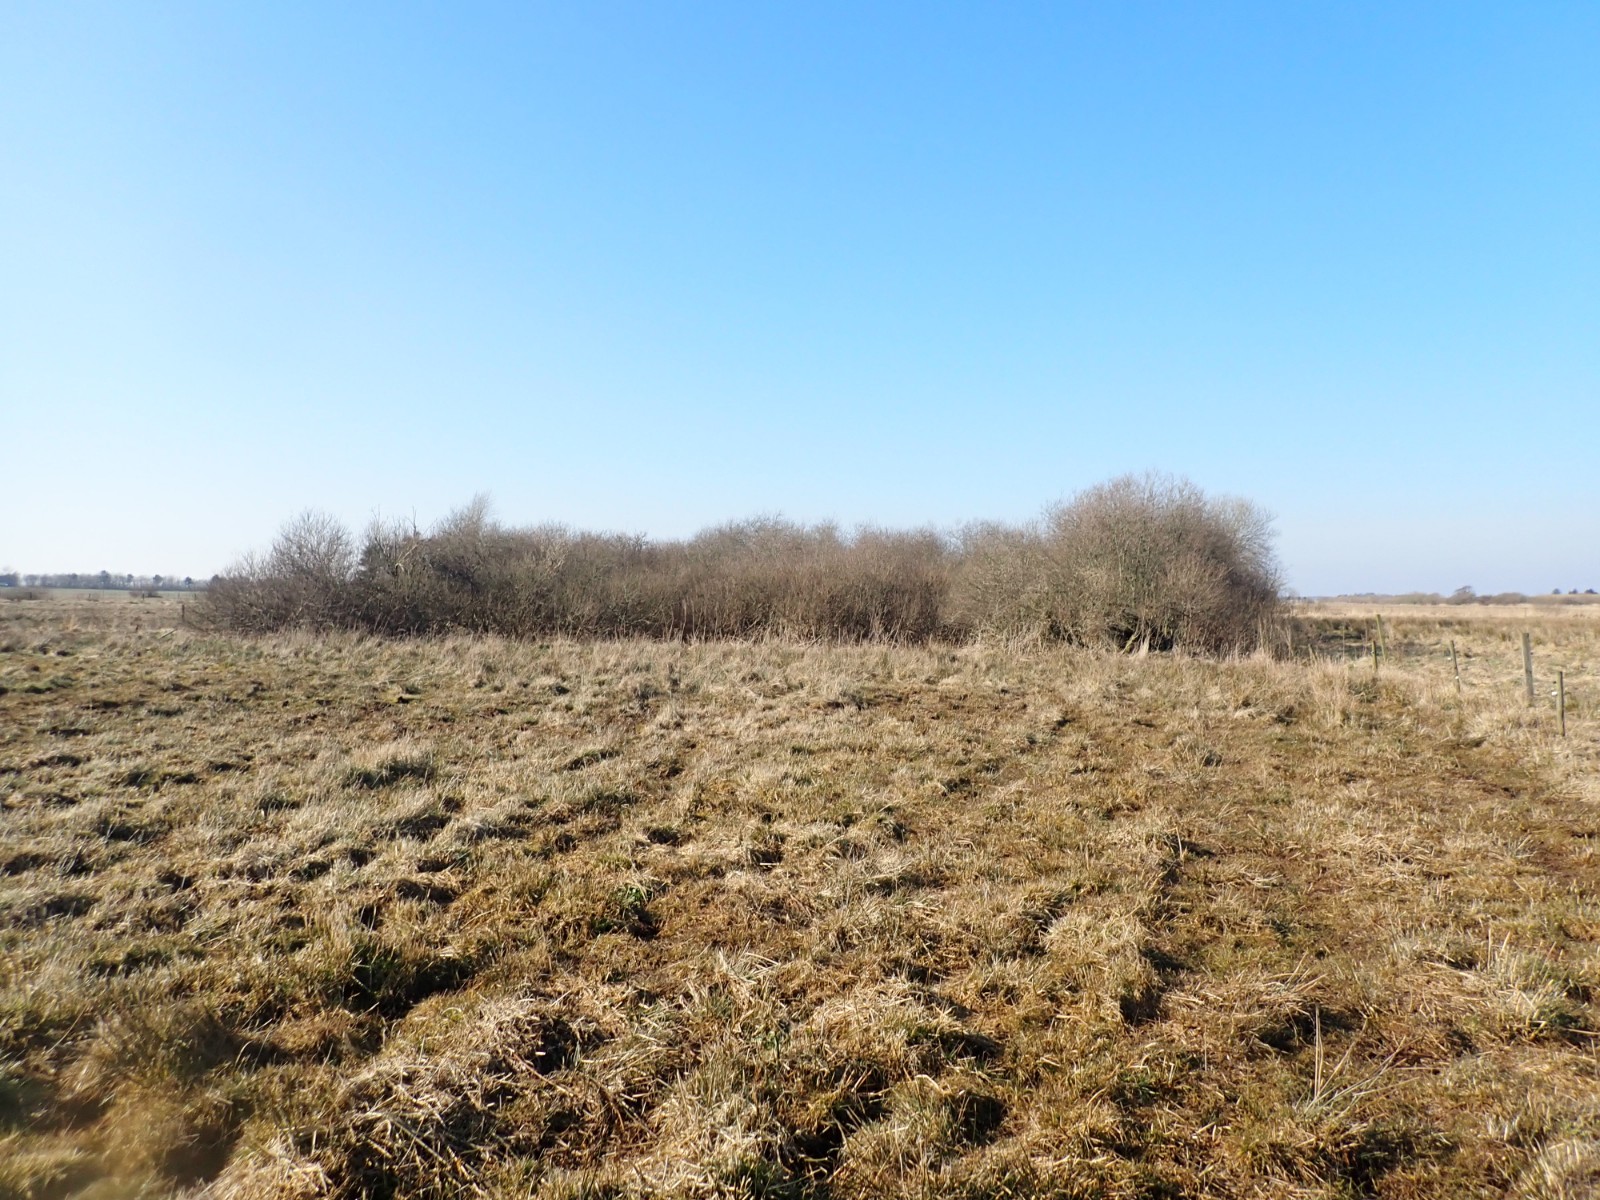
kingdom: Fungi
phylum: Basidiomycota
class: Agaricomycetes
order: Hymenochaetales
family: Hymenochaetaceae
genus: Hydnoporia
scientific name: Hydnoporia tabacina
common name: tobaksbrun ruslædersvamp
